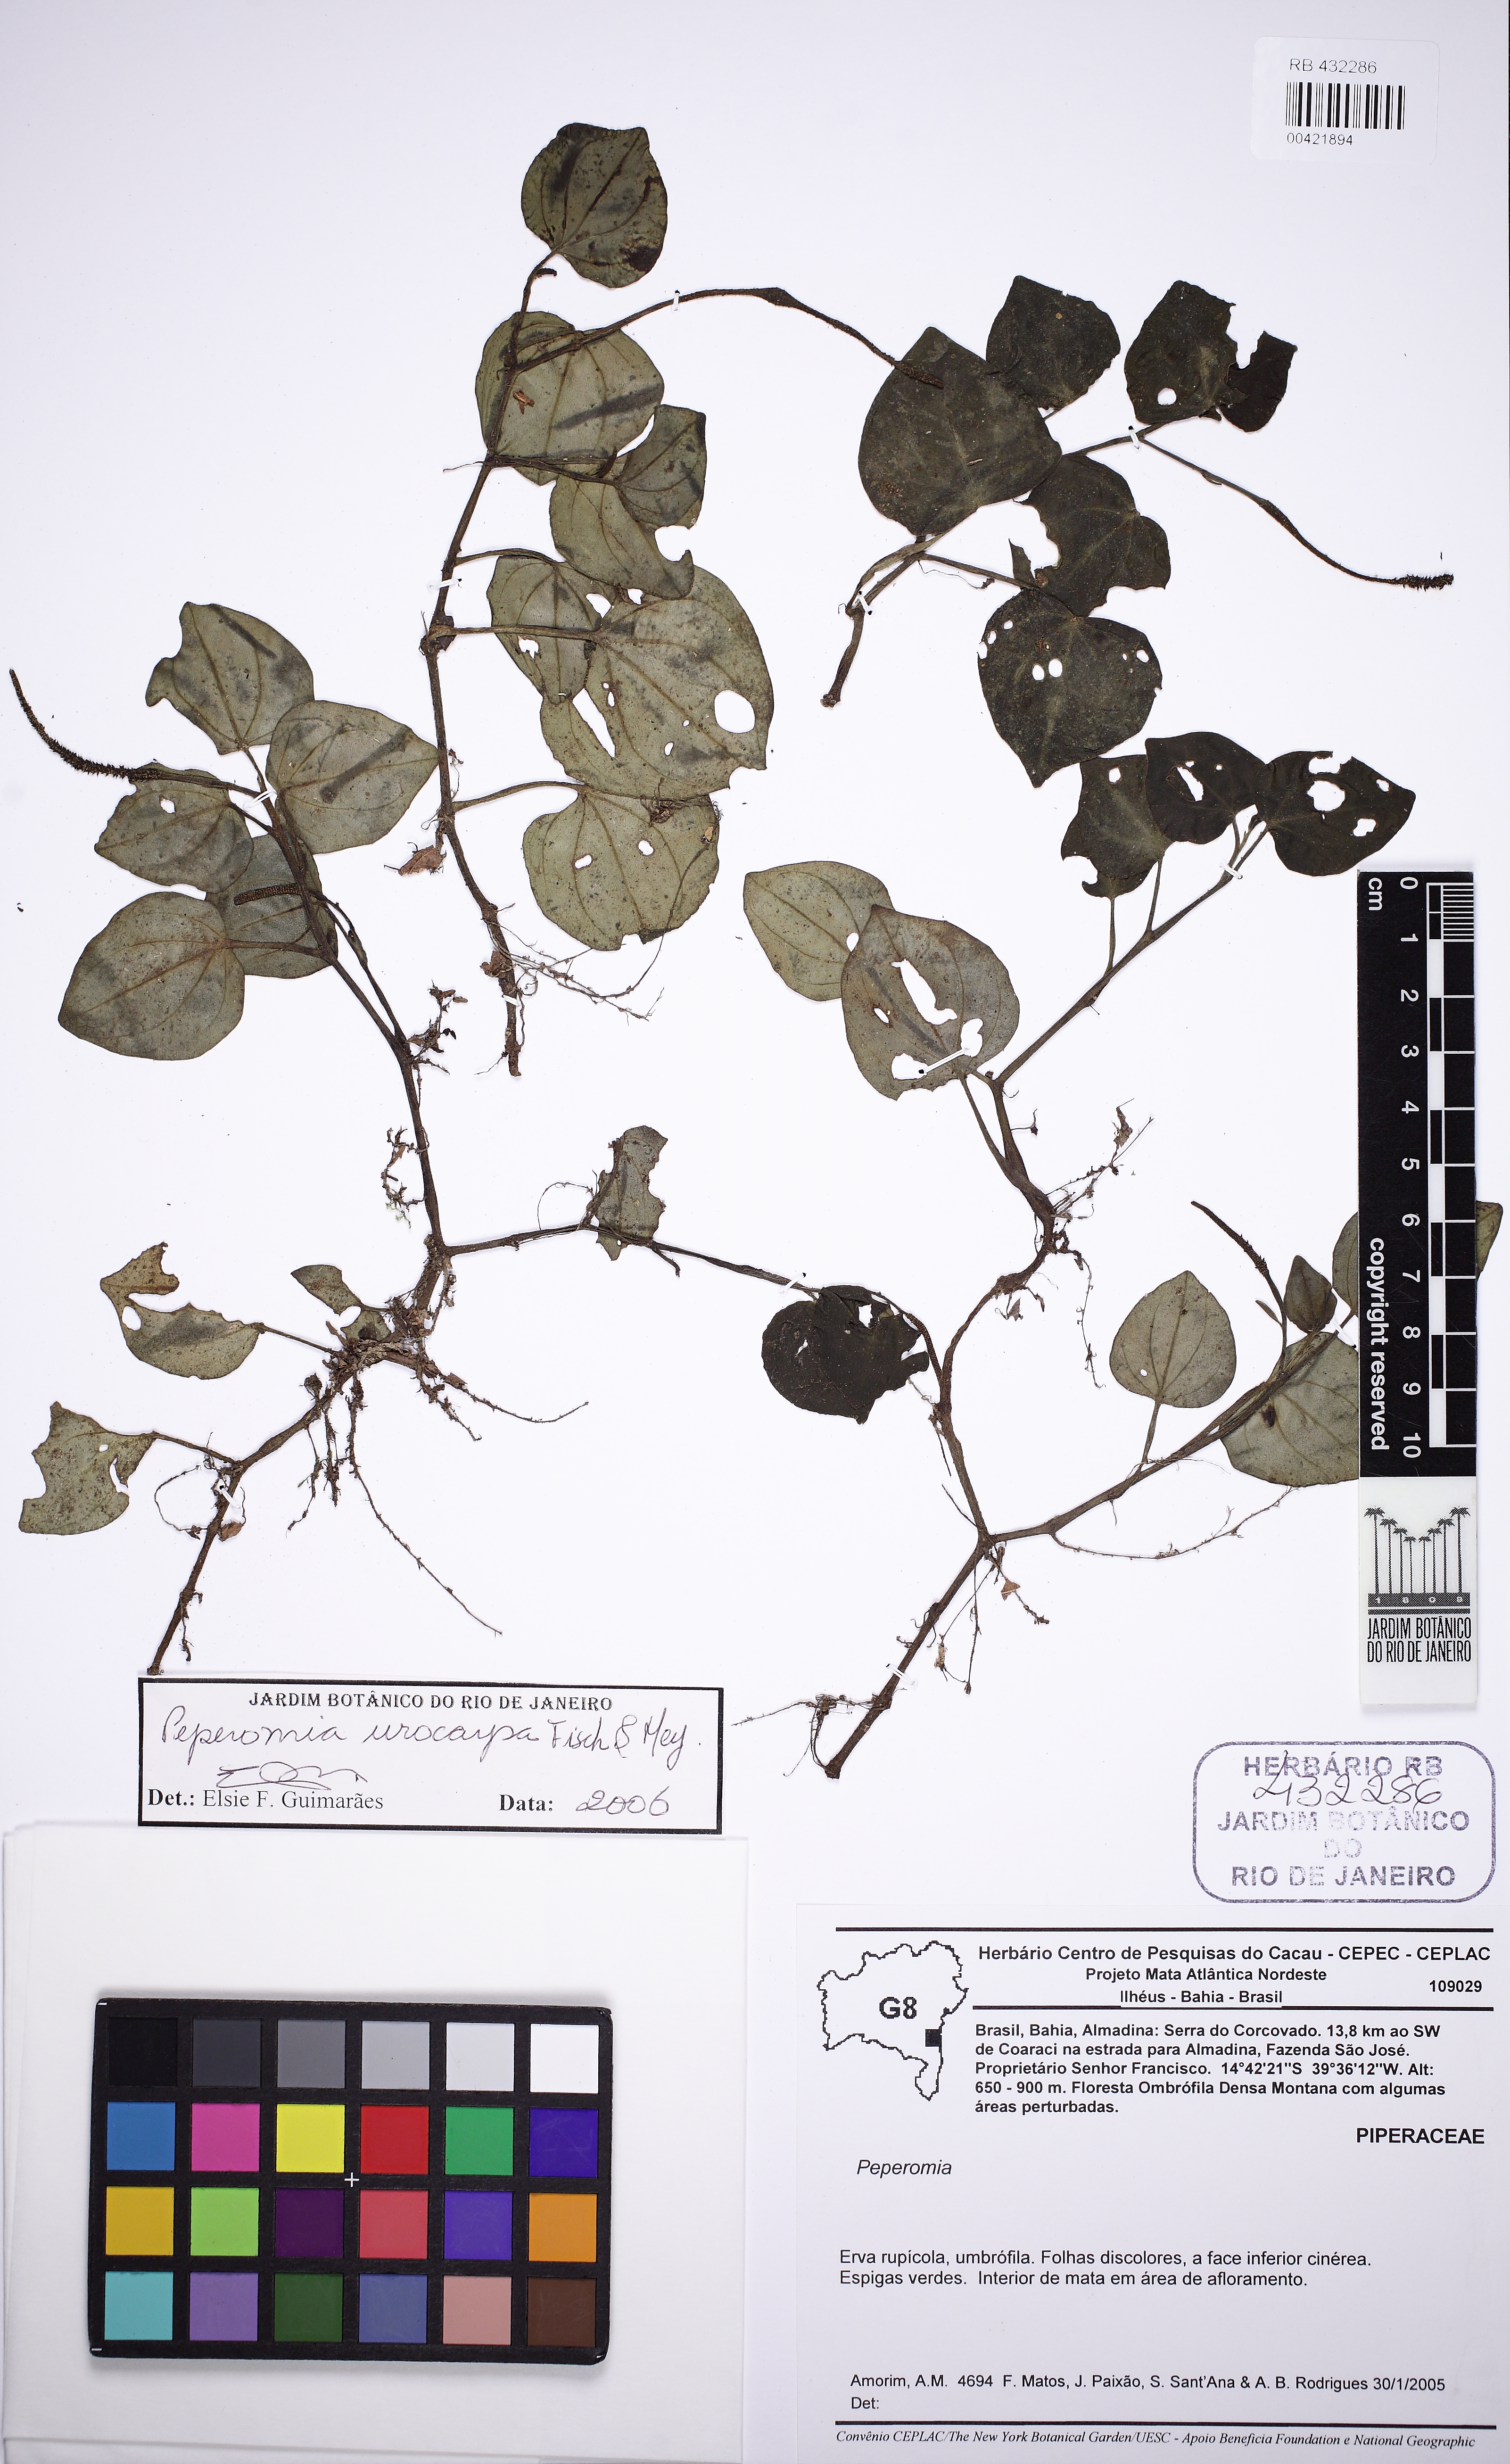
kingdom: Plantae
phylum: Tracheophyta
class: Magnoliopsida
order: Piperales
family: Piperaceae
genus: Peperomia
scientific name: Peperomia urocarpa
